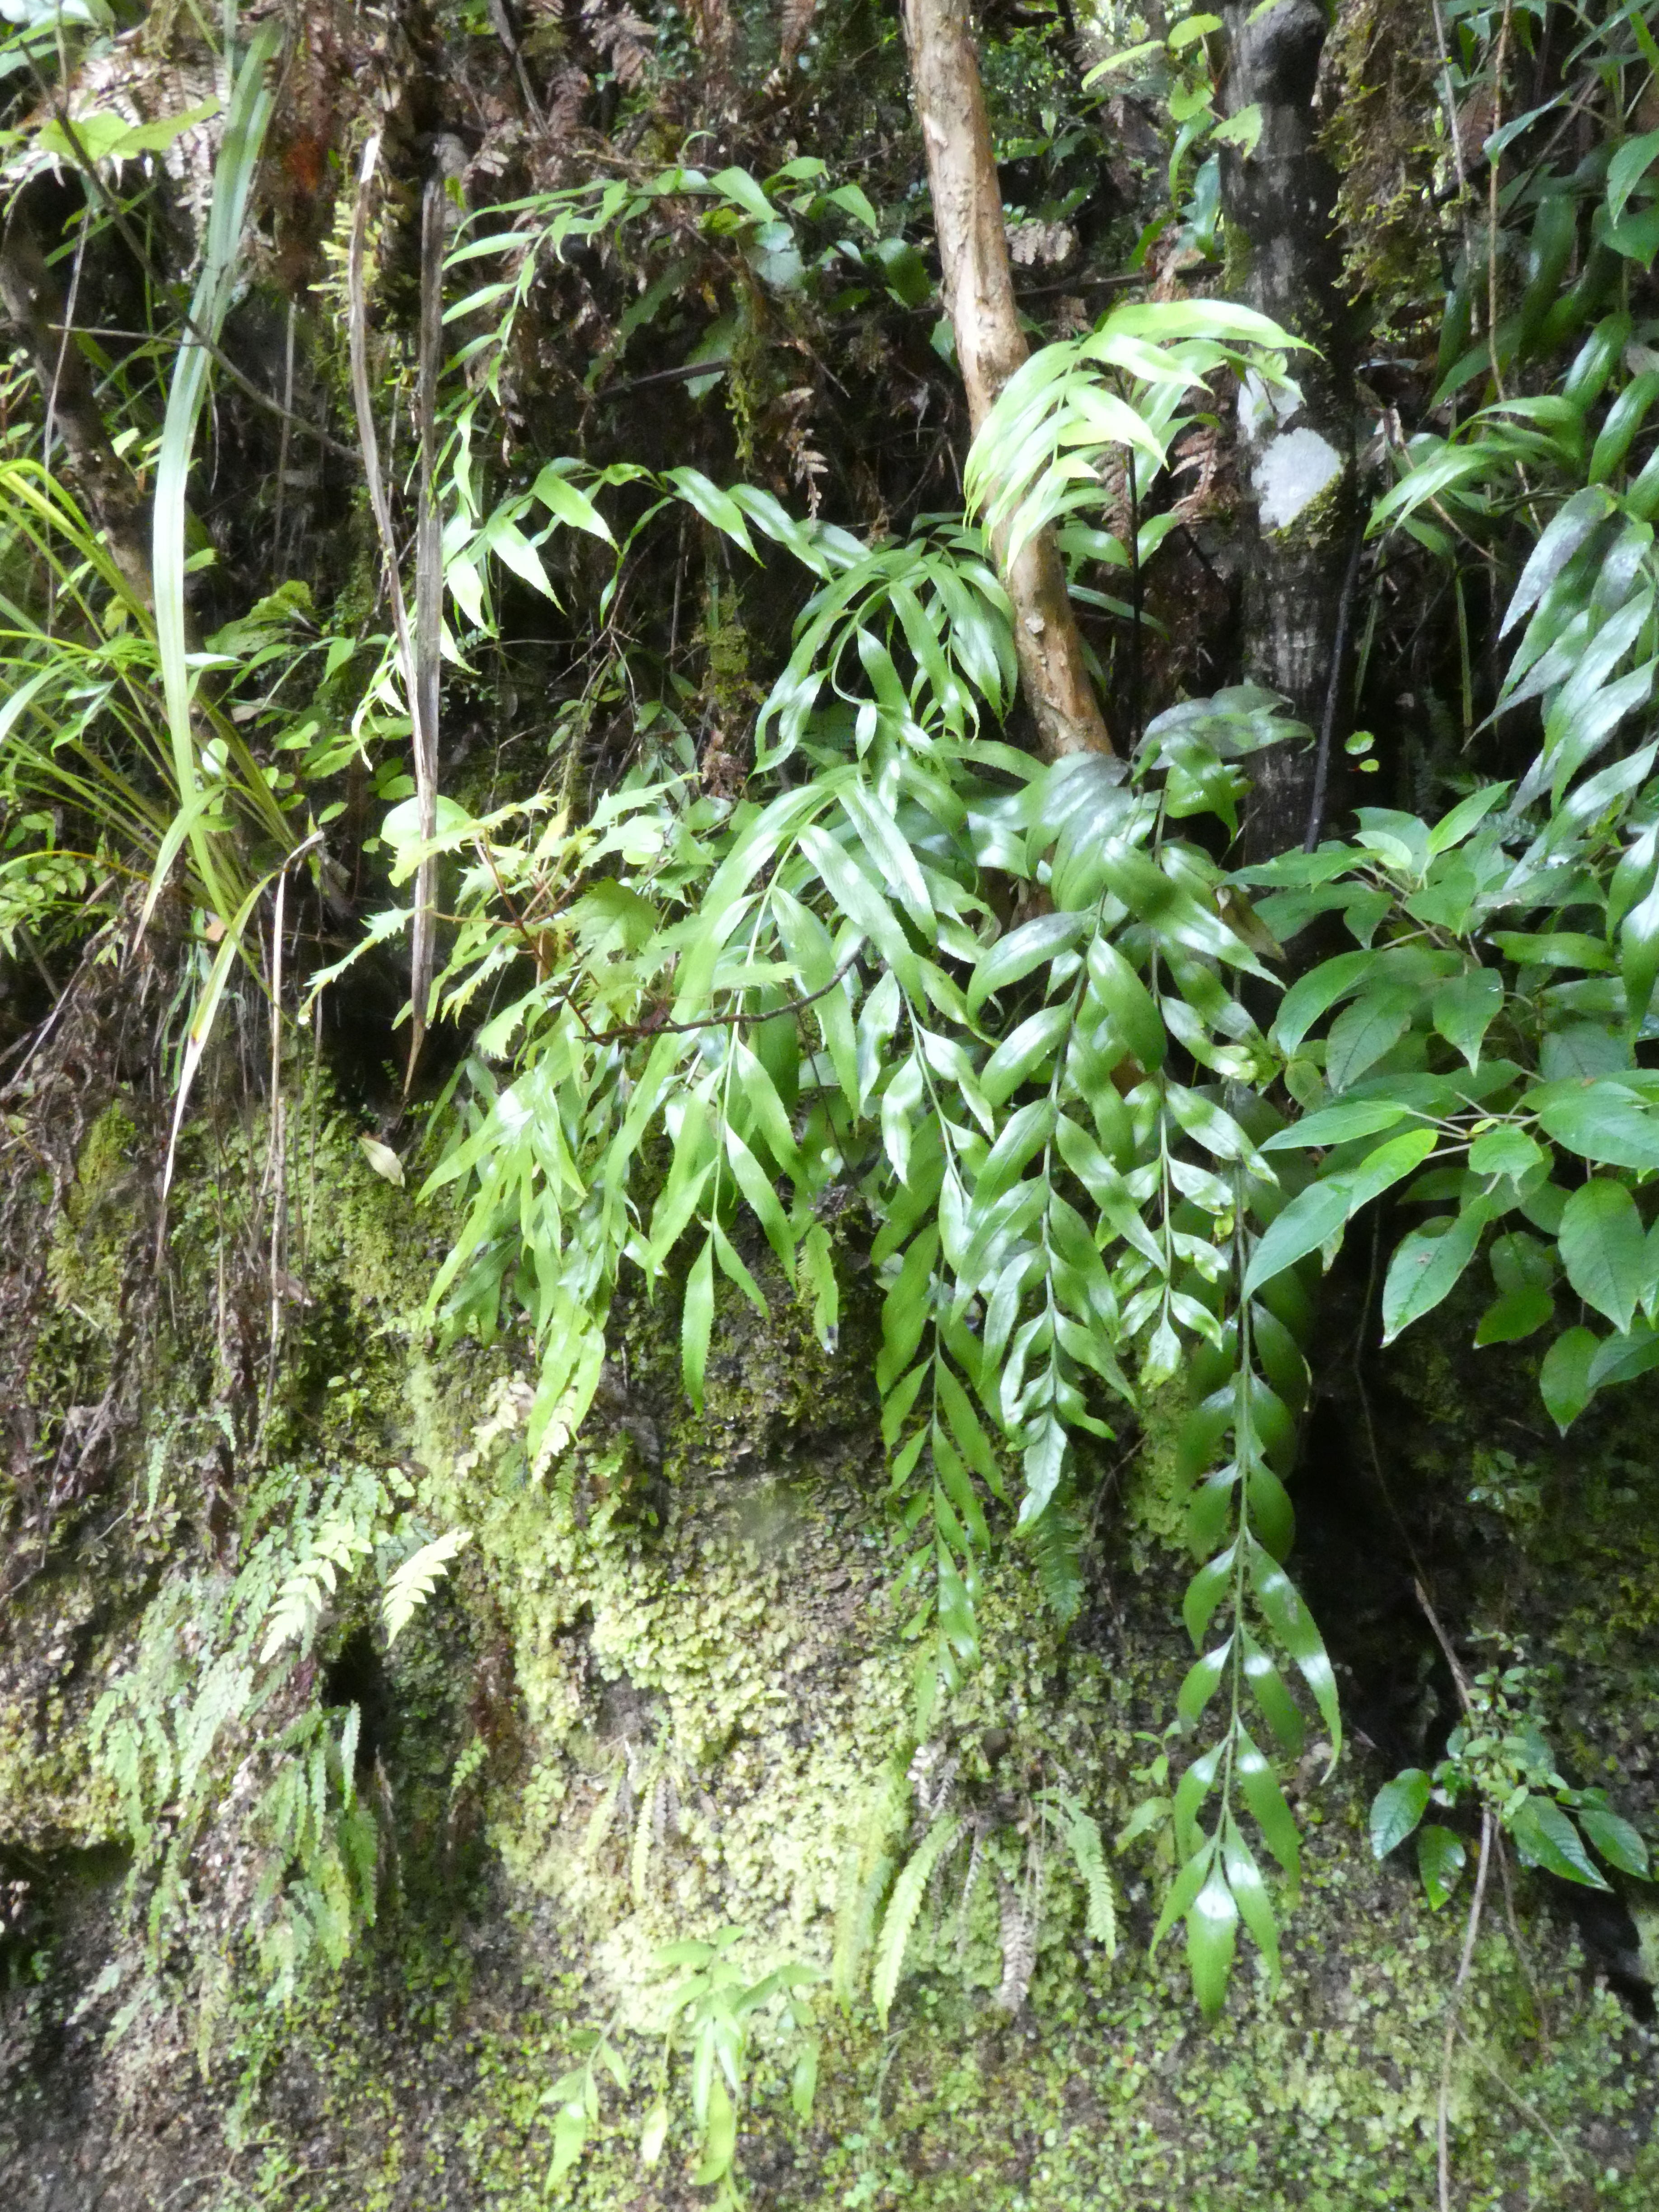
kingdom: Plantae
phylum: Tracheophyta
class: Polypodiopsida
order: Polypodiales
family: Aspleniaceae
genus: Asplenium
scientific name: Asplenium lepidotum
